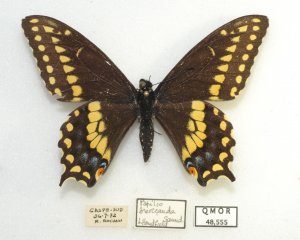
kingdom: Animalia
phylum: Arthropoda
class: Insecta
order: Lepidoptera
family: Papilionidae
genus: Papilio
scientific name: Papilio brevicauda
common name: Short-tailed Swallowtail
